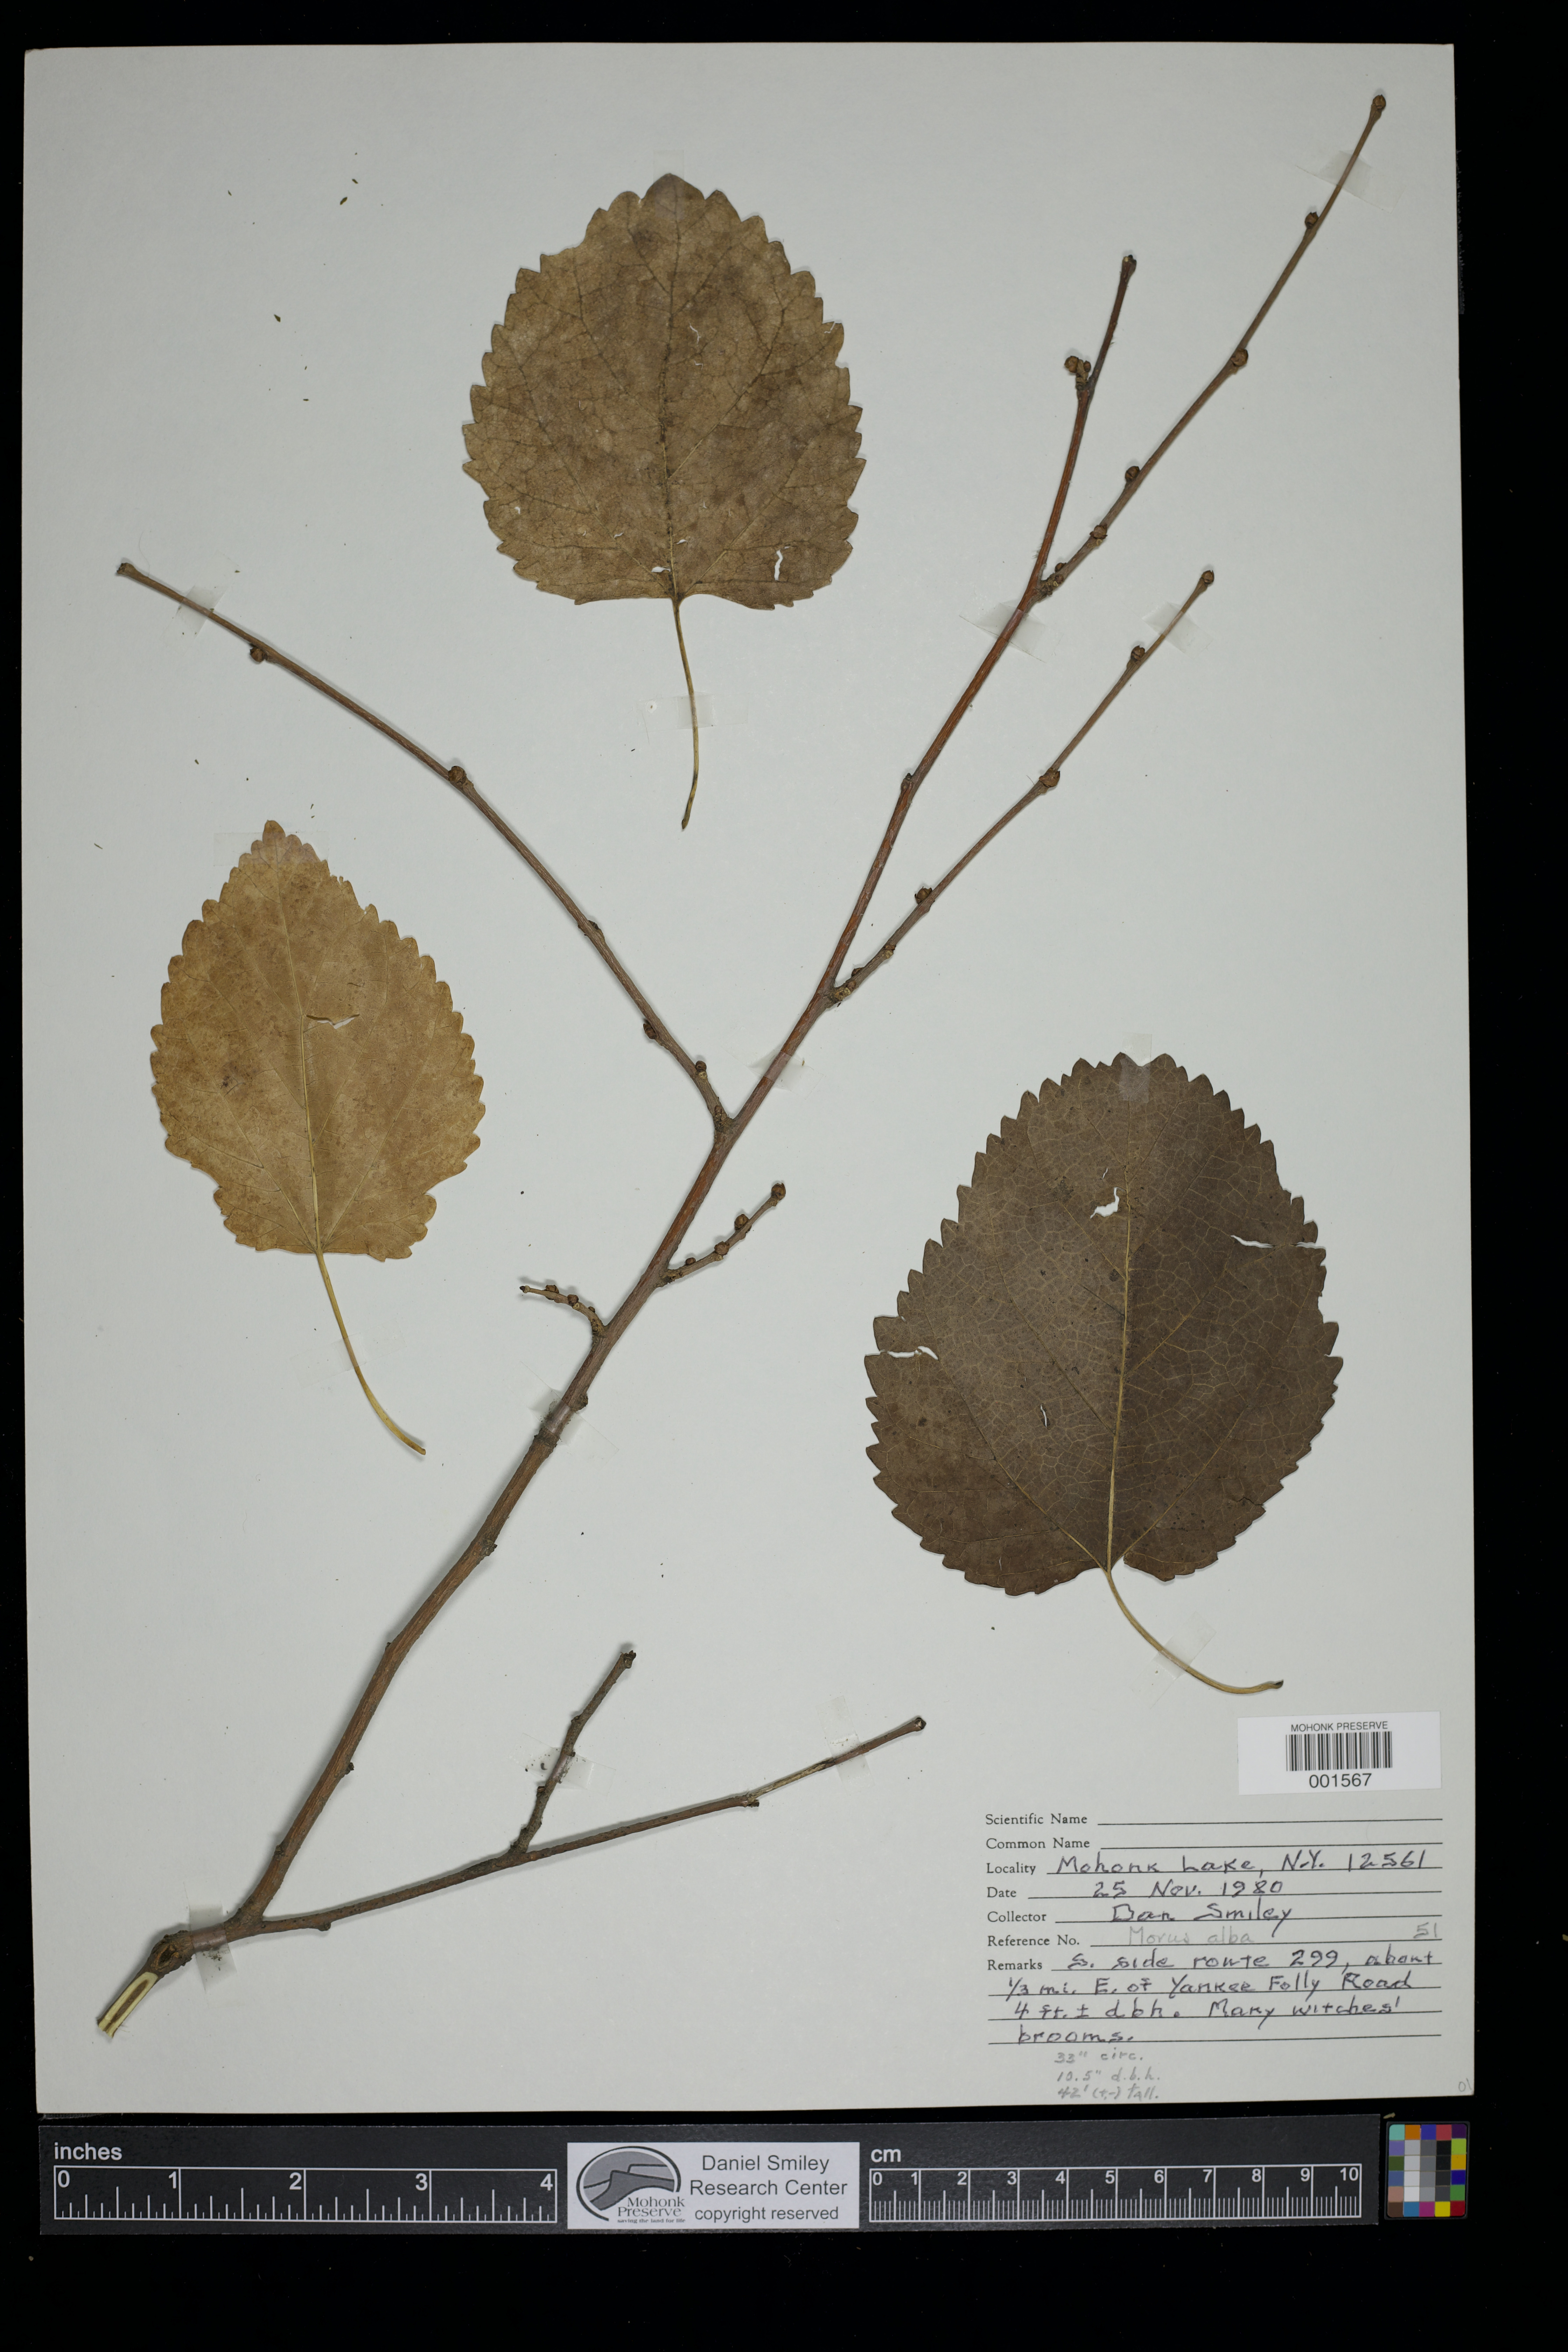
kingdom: Plantae
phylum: Tracheophyta
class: Magnoliopsida
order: Rosales
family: Moraceae
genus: Morus
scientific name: Morus alba
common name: White mulberry
